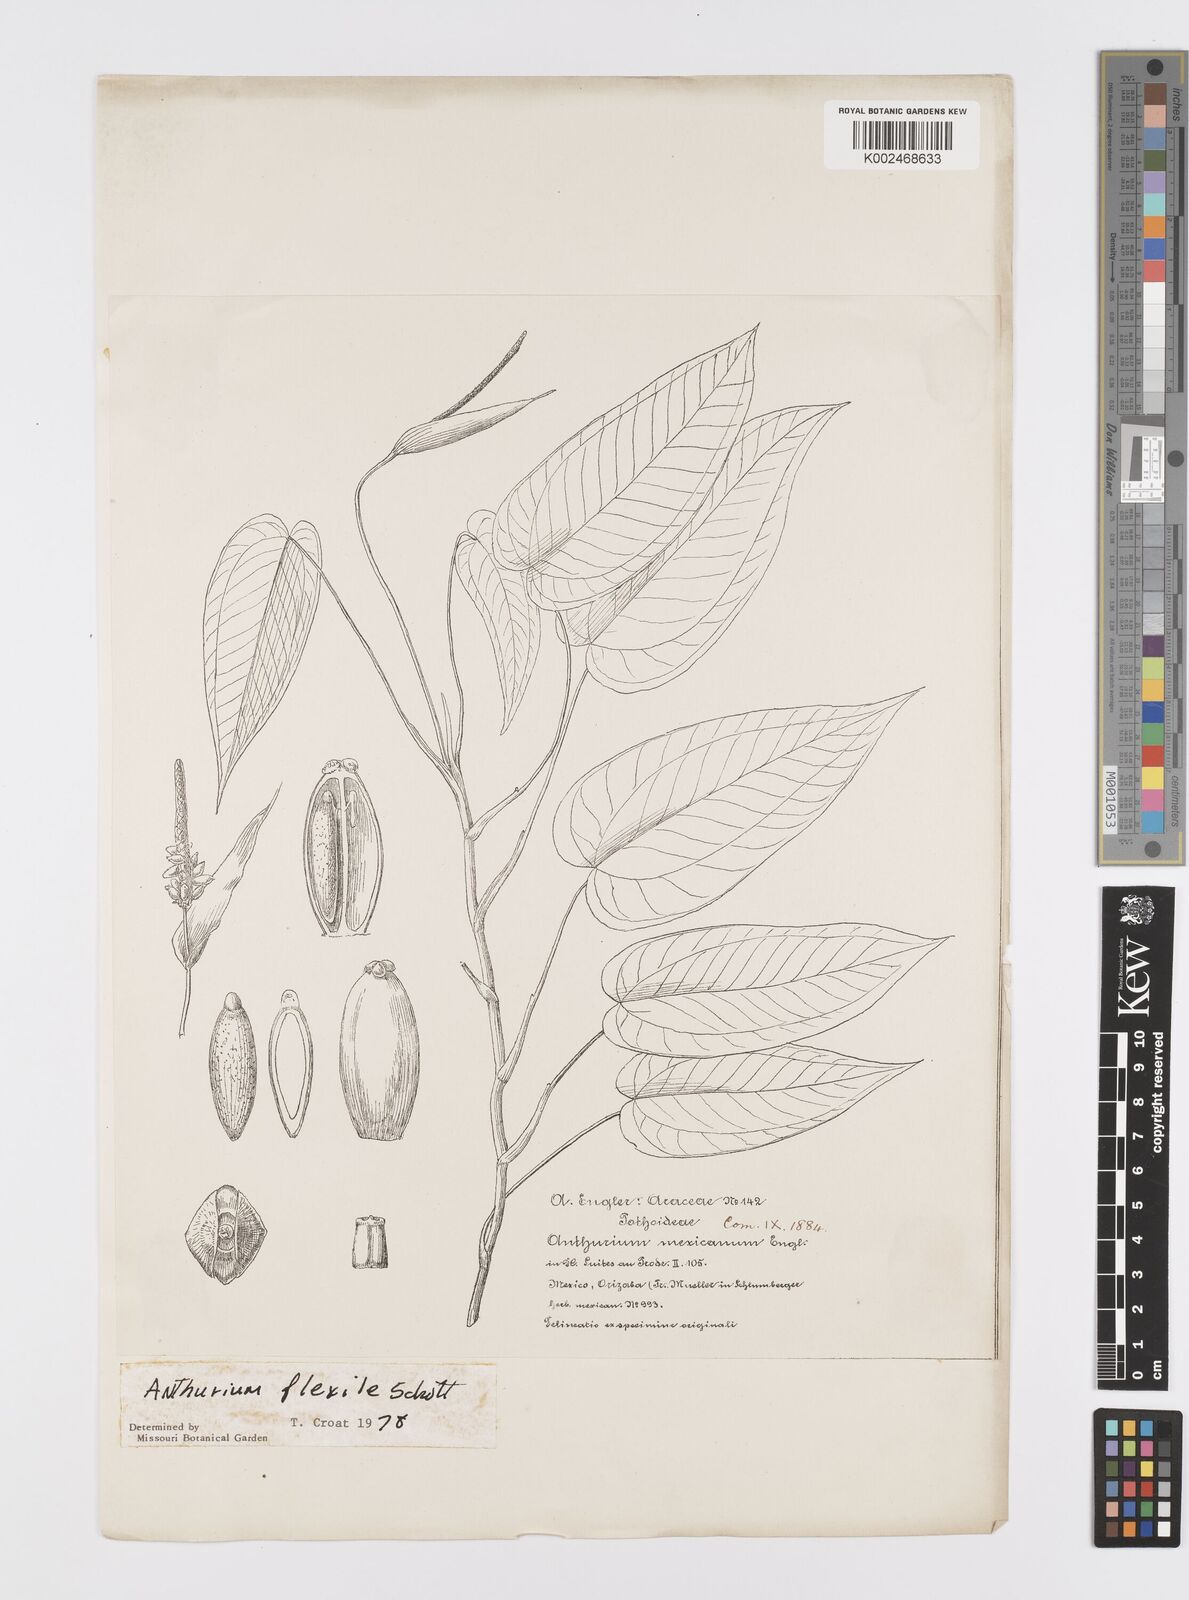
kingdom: Plantae
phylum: Tracheophyta
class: Liliopsida
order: Alismatales
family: Araceae
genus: Anthurium
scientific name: Anthurium flexile
